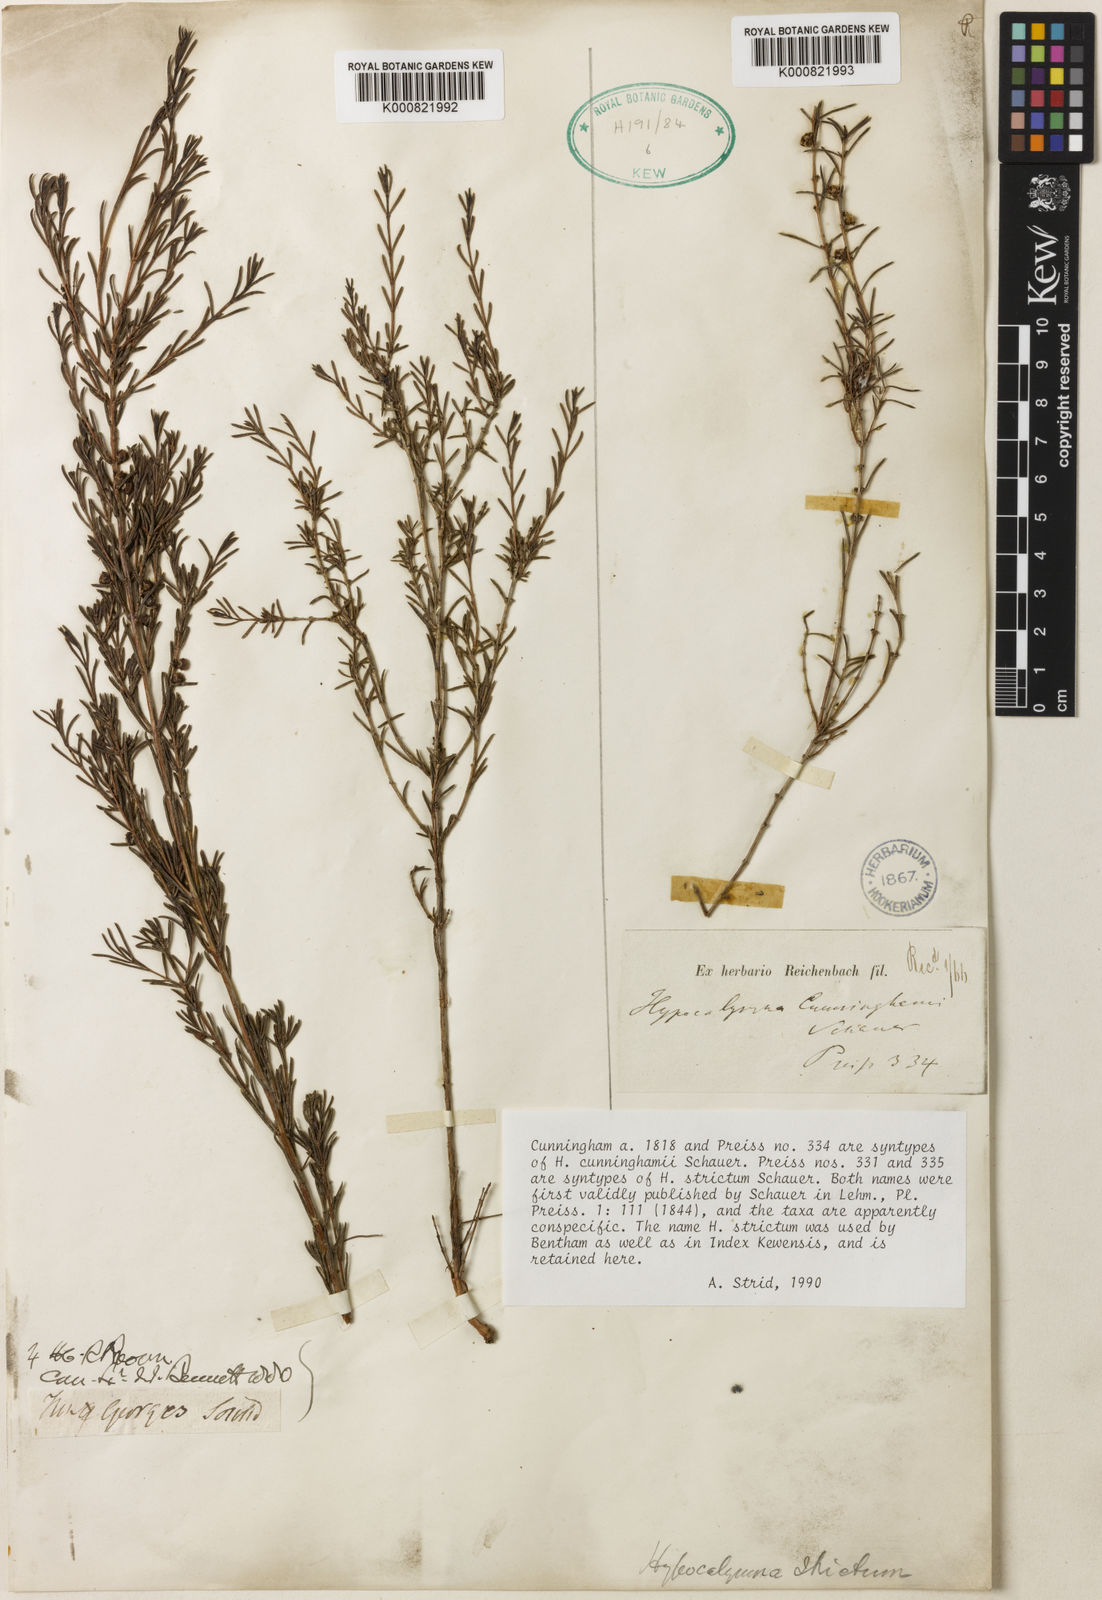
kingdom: Plantae
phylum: Tracheophyta
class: Magnoliopsida
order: Myrtales
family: Myrtaceae
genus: Hypocalymma
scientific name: Hypocalymma strictum
